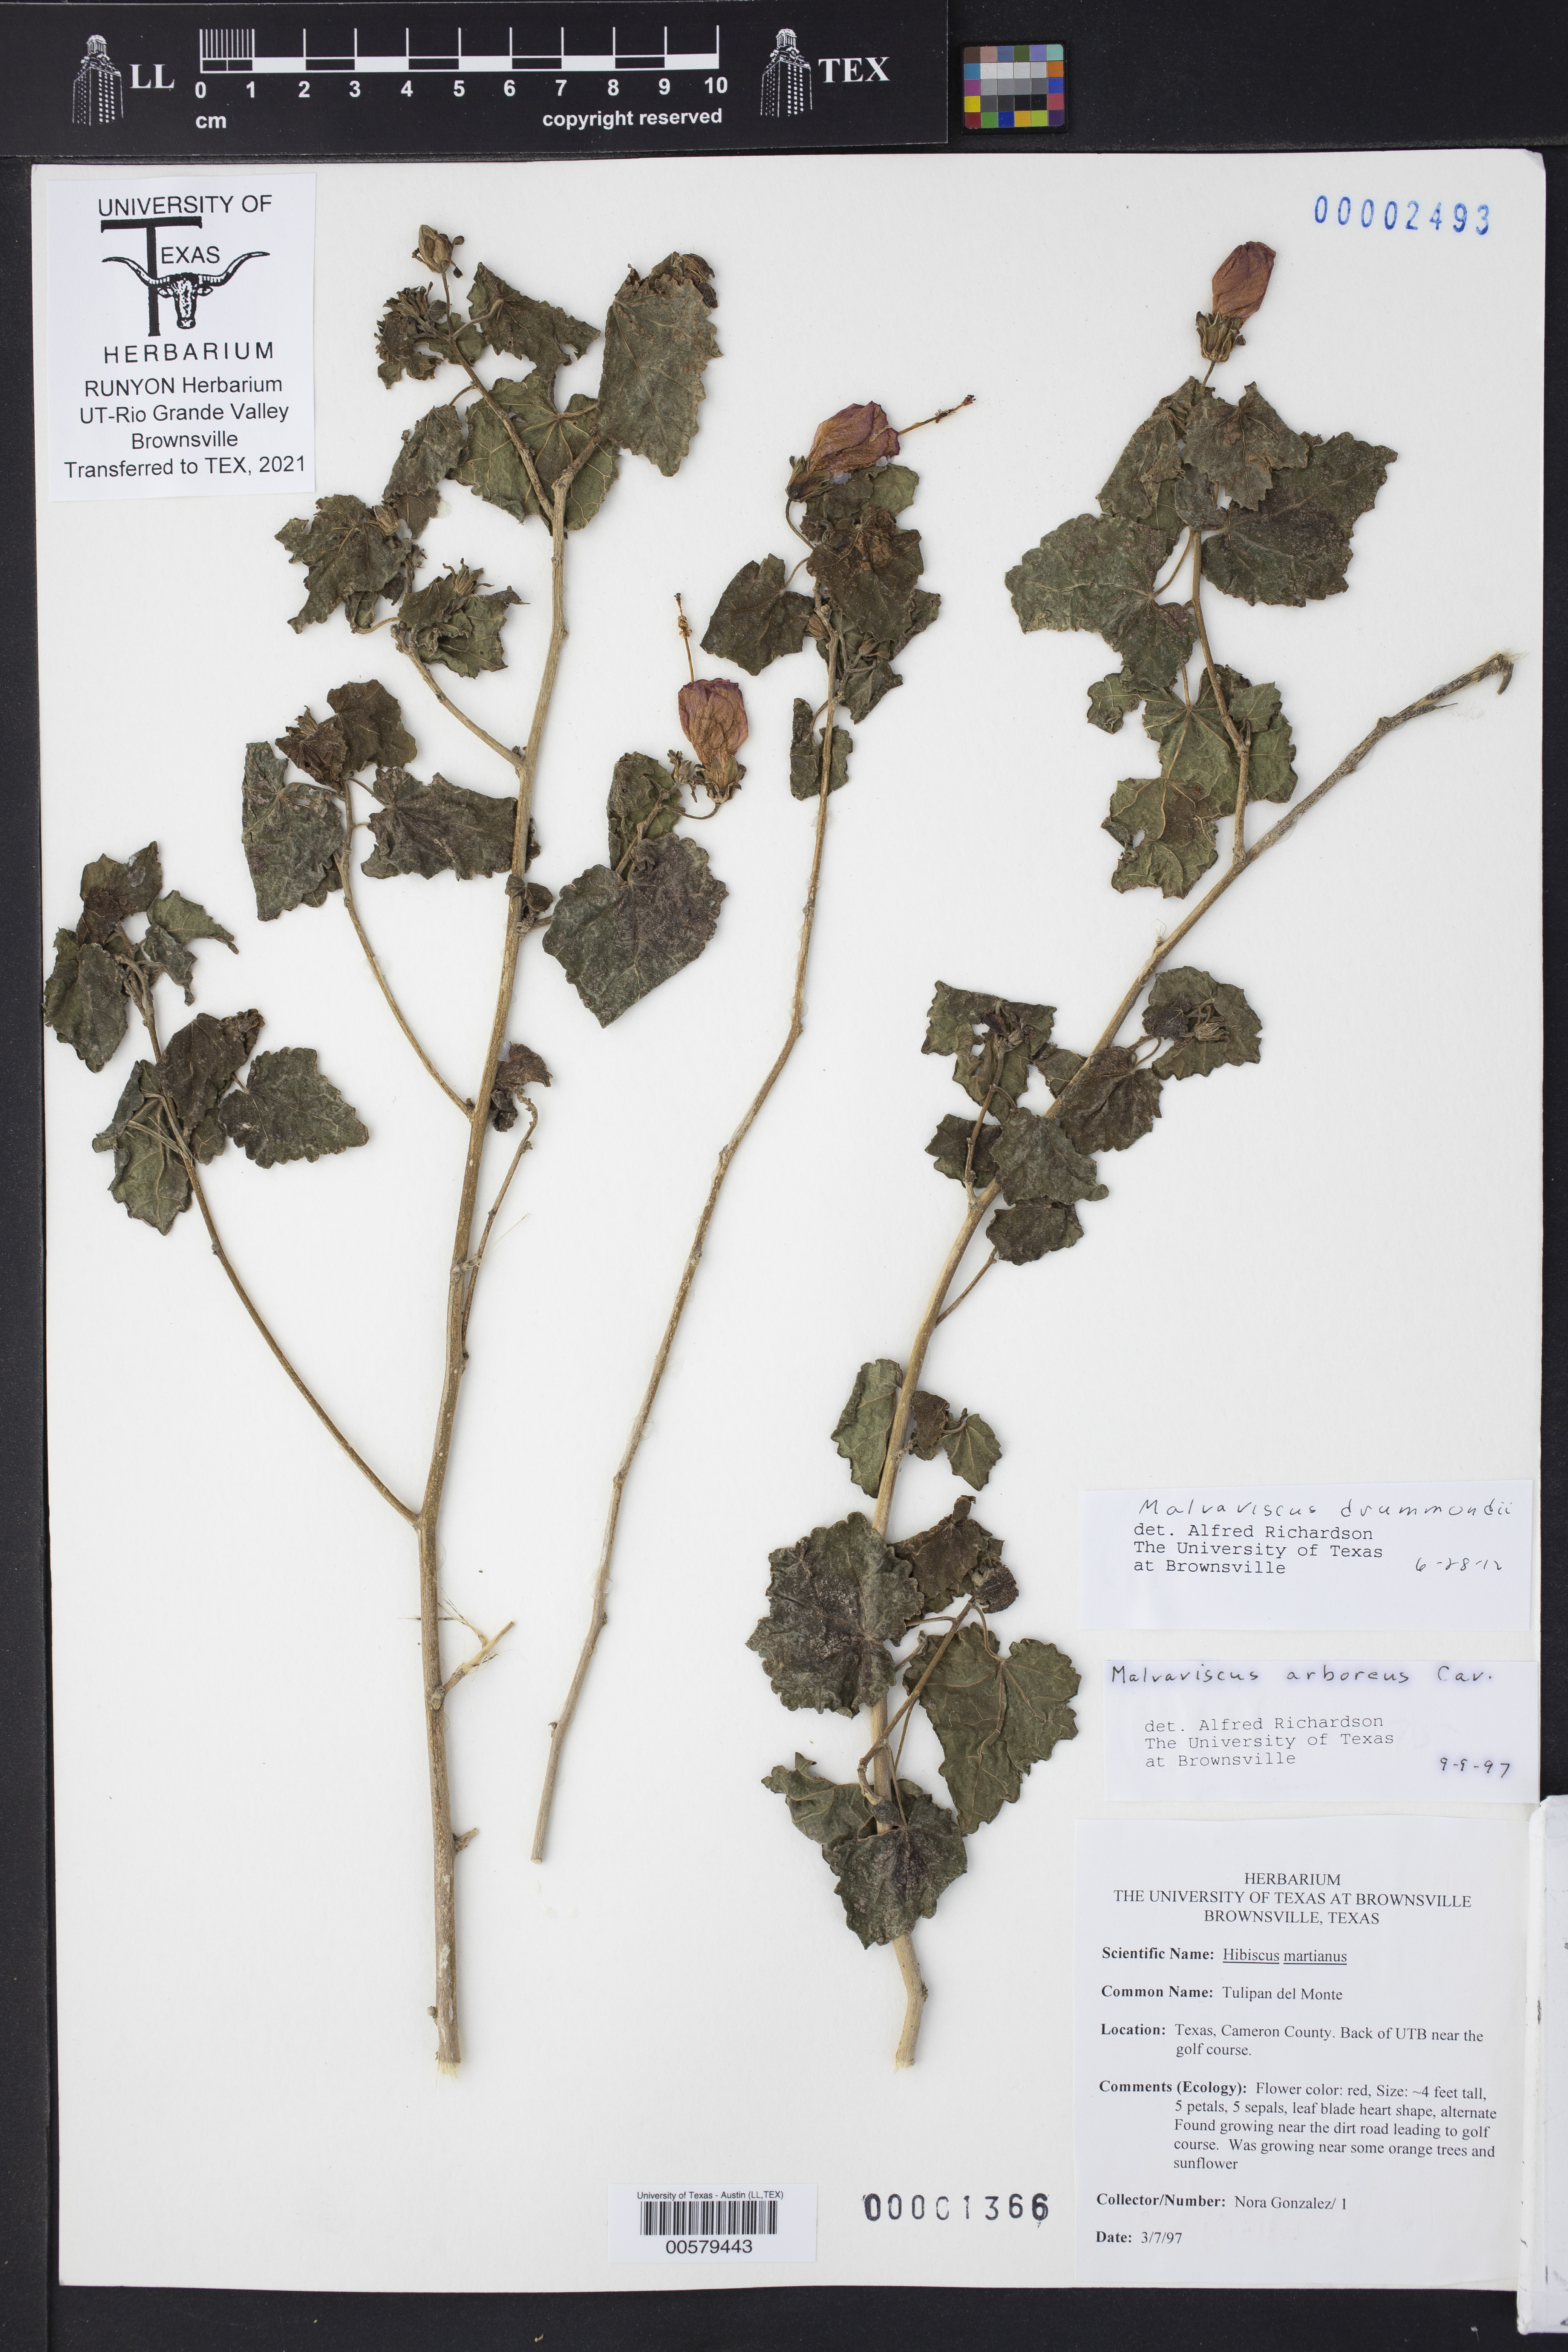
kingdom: Plantae
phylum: Tracheophyta
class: Magnoliopsida
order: Malvales
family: Malvaceae
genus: Malvaviscus
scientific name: Malvaviscus arboreus
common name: Wax mallow
